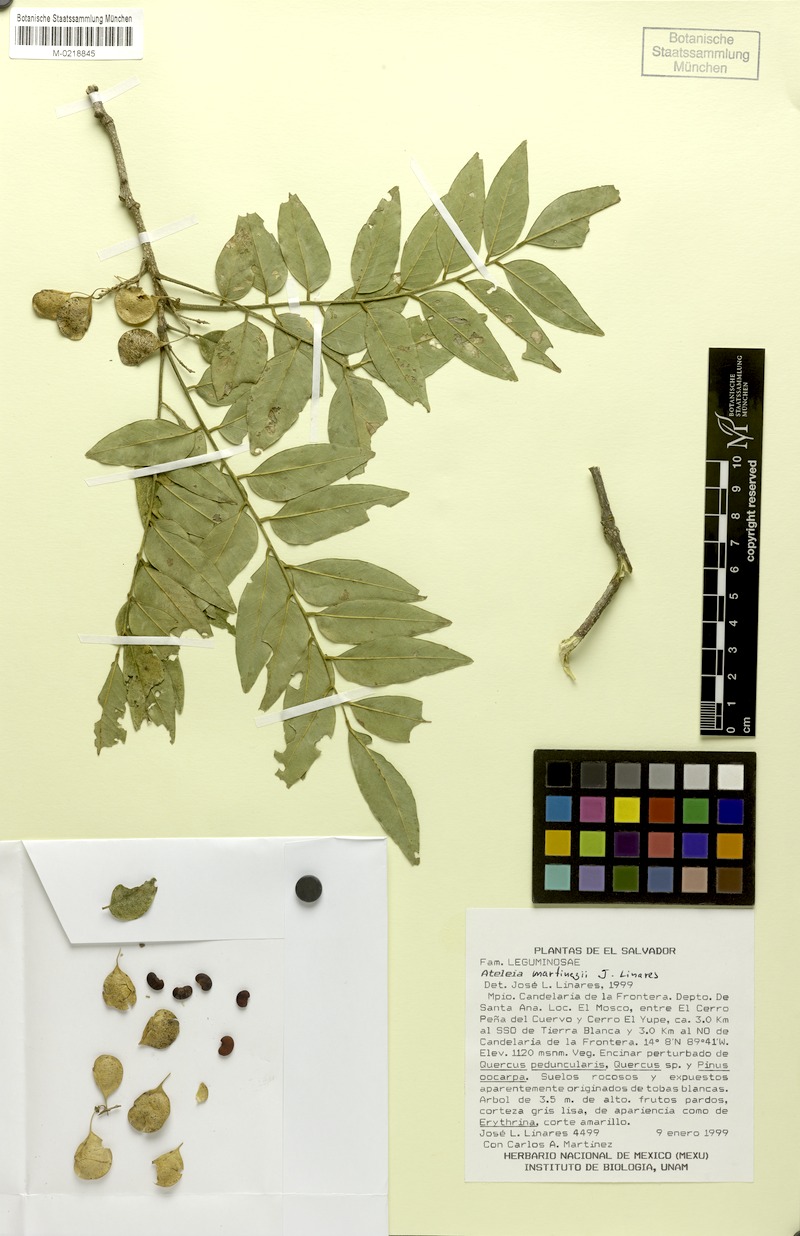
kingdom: Plantae
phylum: Tracheophyta
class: Magnoliopsida
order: Fabales
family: Fabaceae
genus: Ateleia
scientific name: Ateleia martinezii
